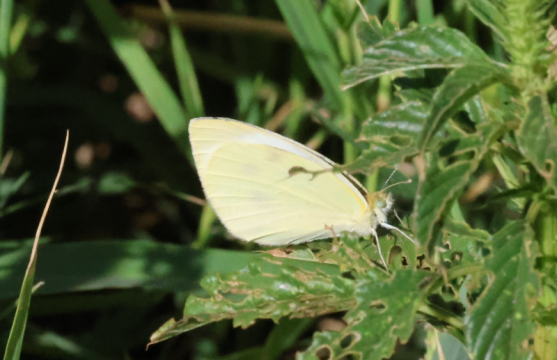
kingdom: Animalia
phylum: Arthropoda
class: Insecta
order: Lepidoptera
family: Pieridae
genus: Pieris
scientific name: Pieris rapae
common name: Cabbage White
